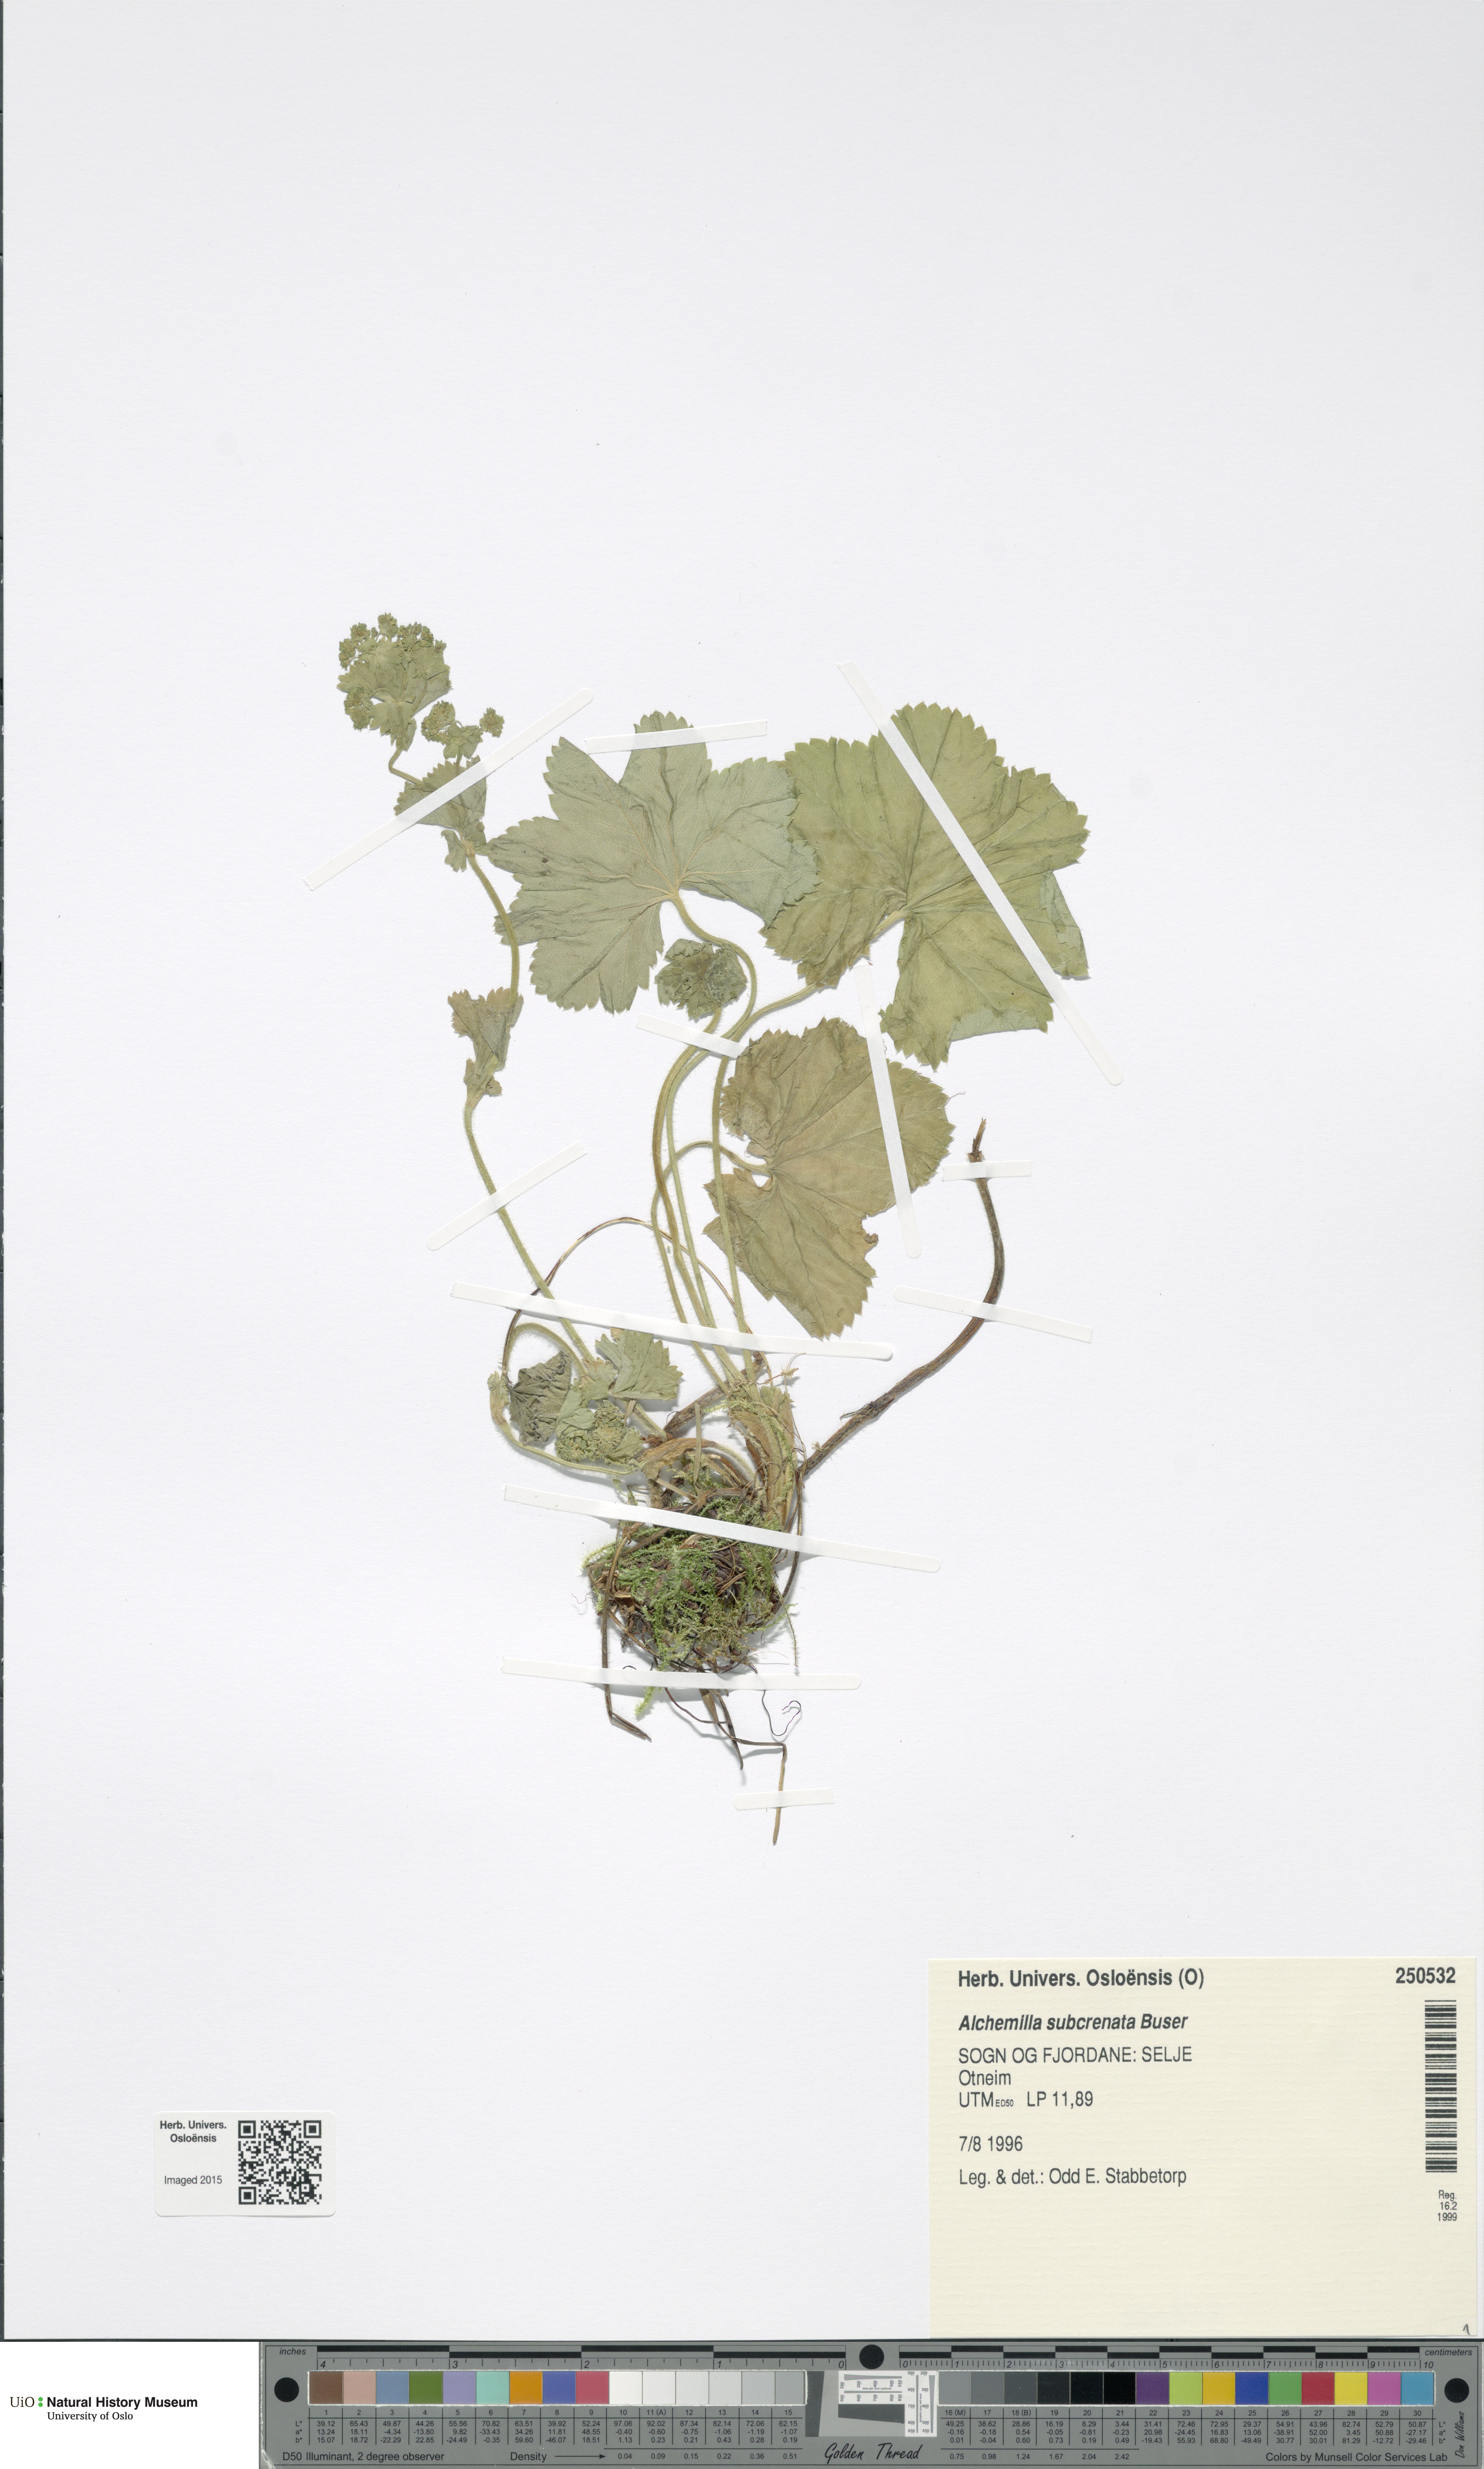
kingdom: Plantae
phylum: Tracheophyta
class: Magnoliopsida
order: Rosales
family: Rosaceae
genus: Alchemilla
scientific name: Alchemilla subcrenata
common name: Broadtooth lady's mantle
